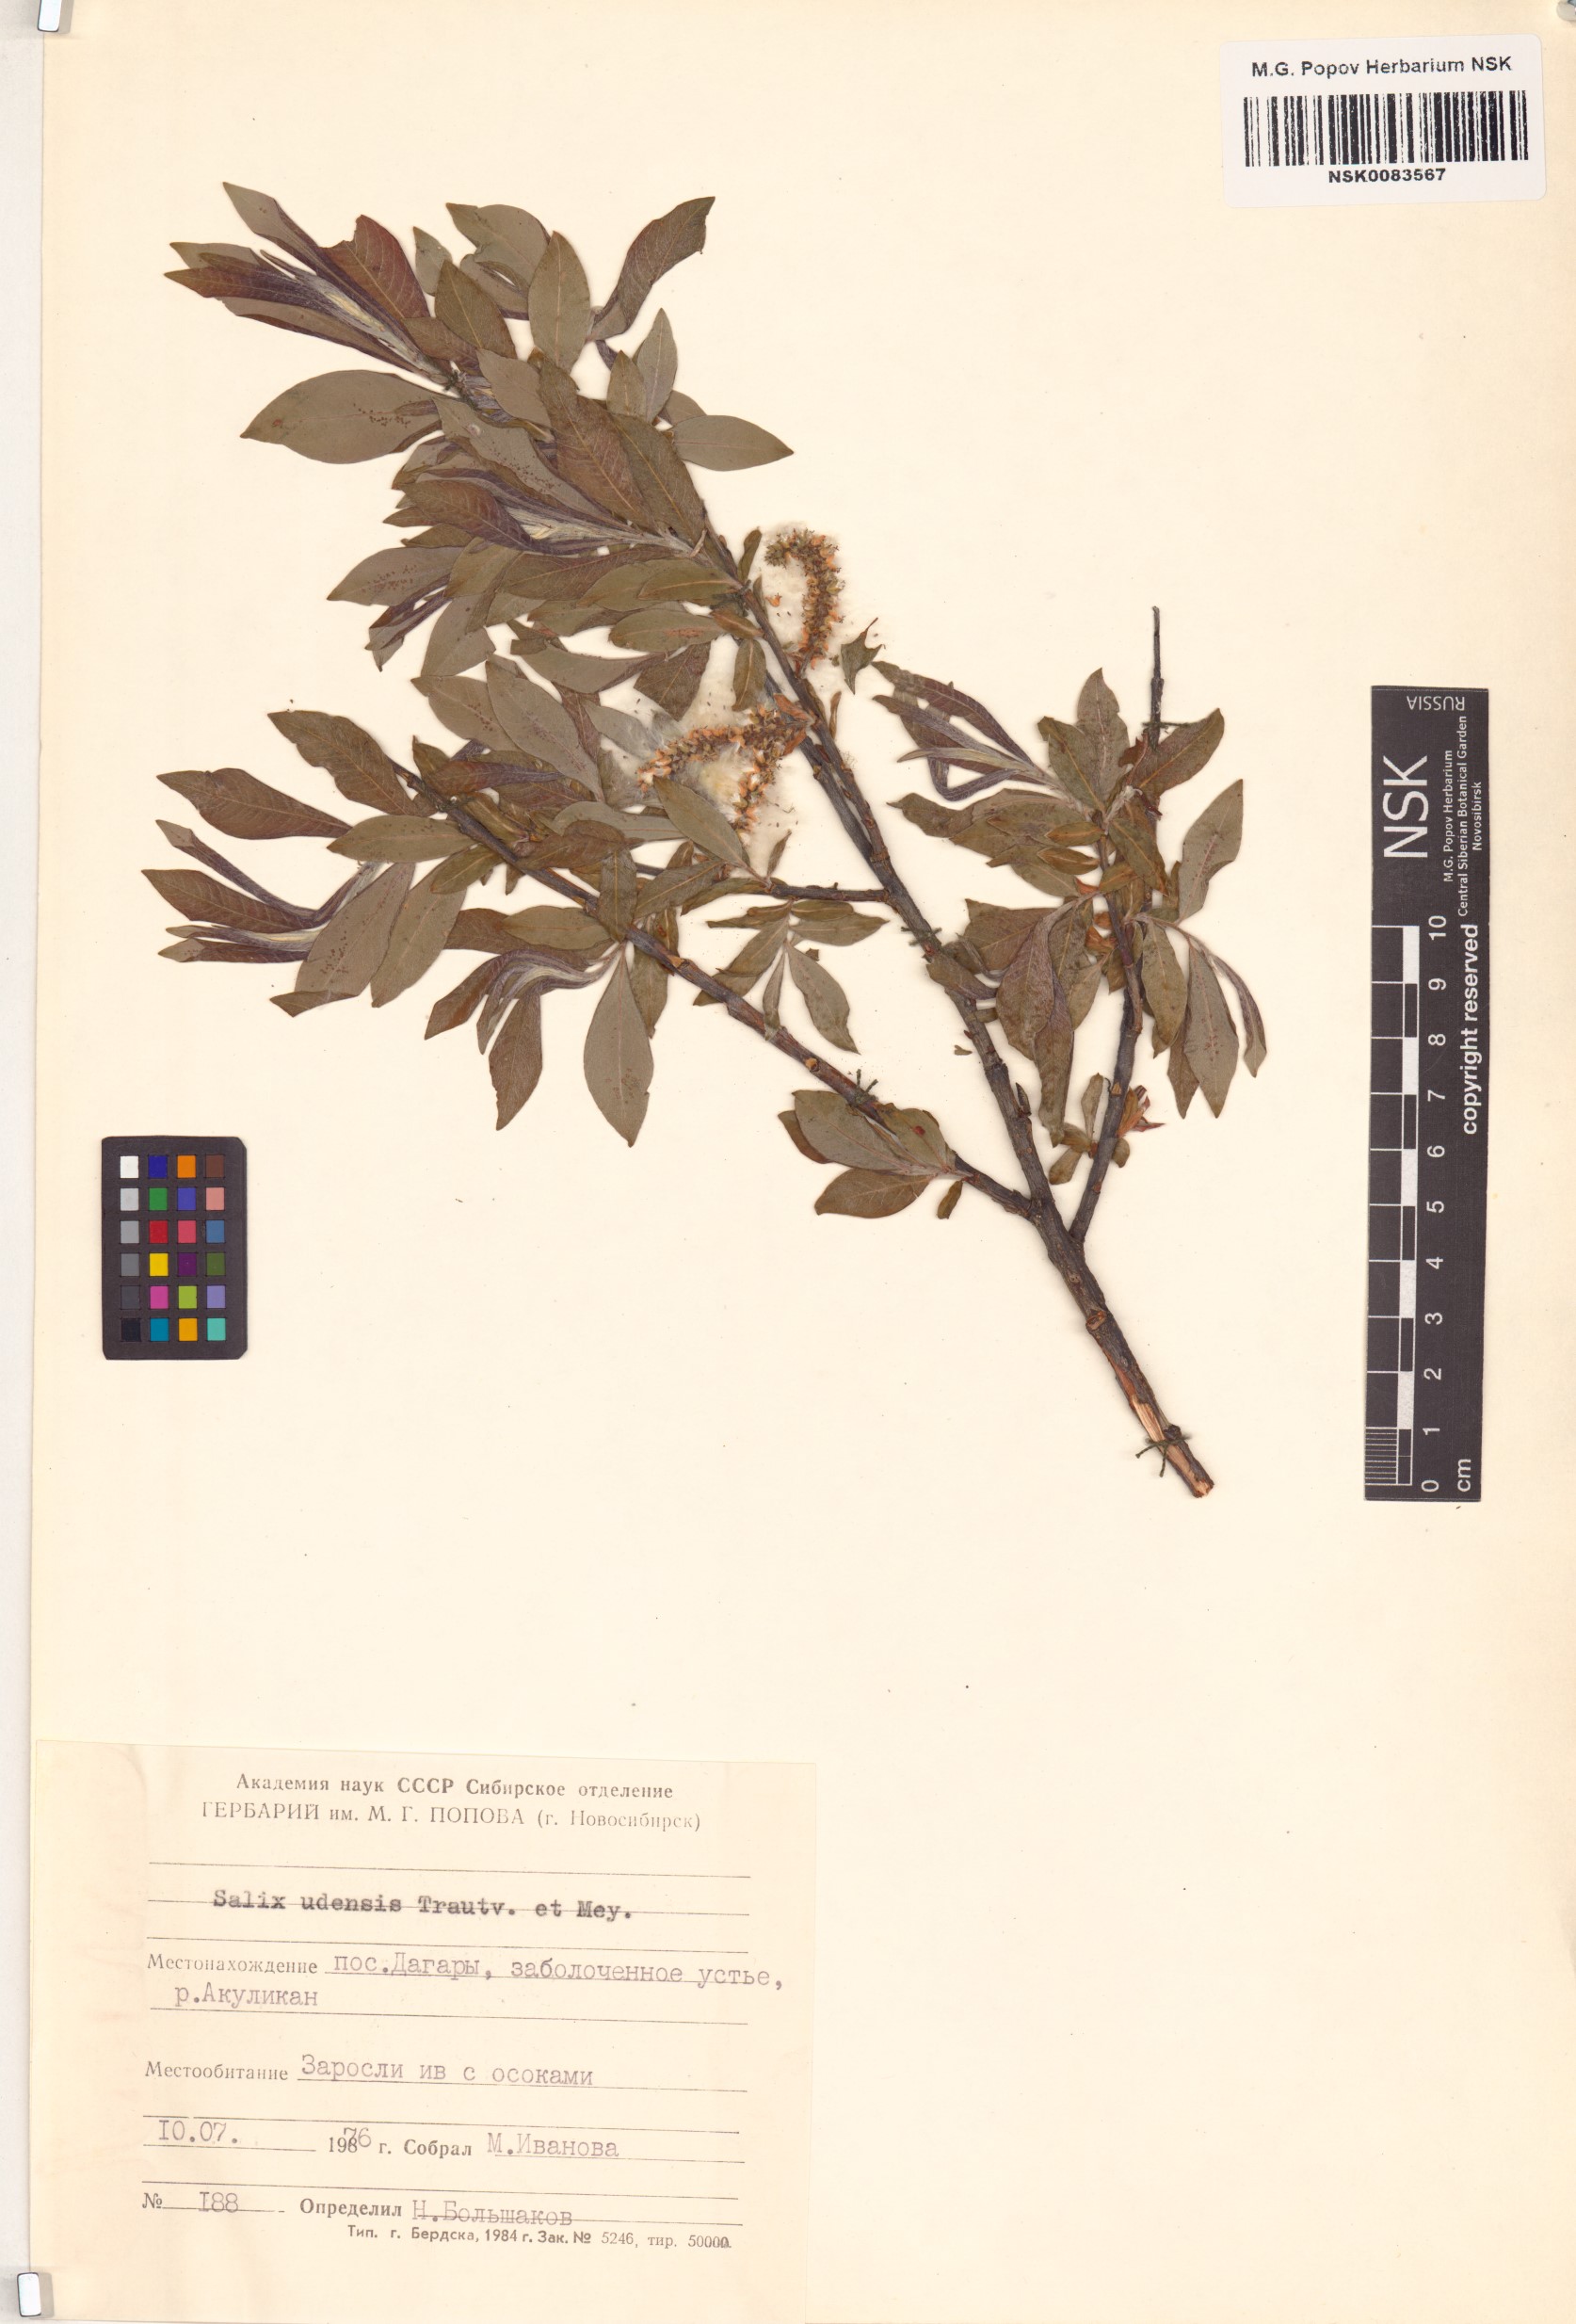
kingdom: Plantae
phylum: Tracheophyta
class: Magnoliopsida
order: Malpighiales
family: Salicaceae
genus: Salix
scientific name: Salix udensis
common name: Sachalin willow
